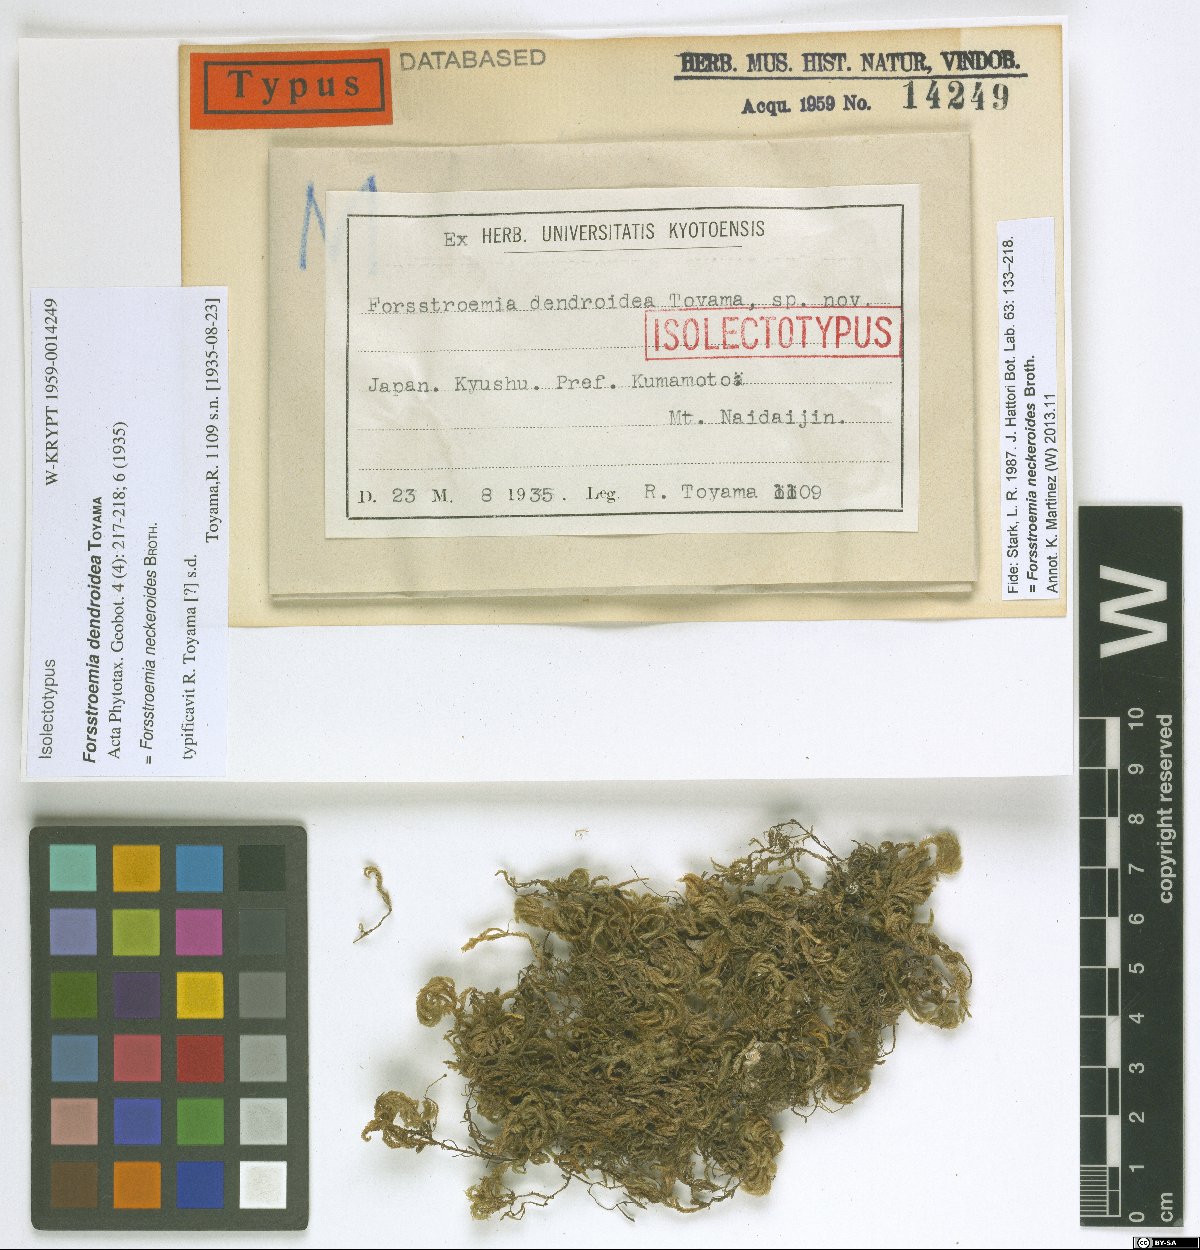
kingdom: Plantae
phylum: Bryophyta
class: Bryopsida
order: Hypnales
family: Neckeraceae
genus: Forsstroemia
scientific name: Forsstroemia neckeroides
